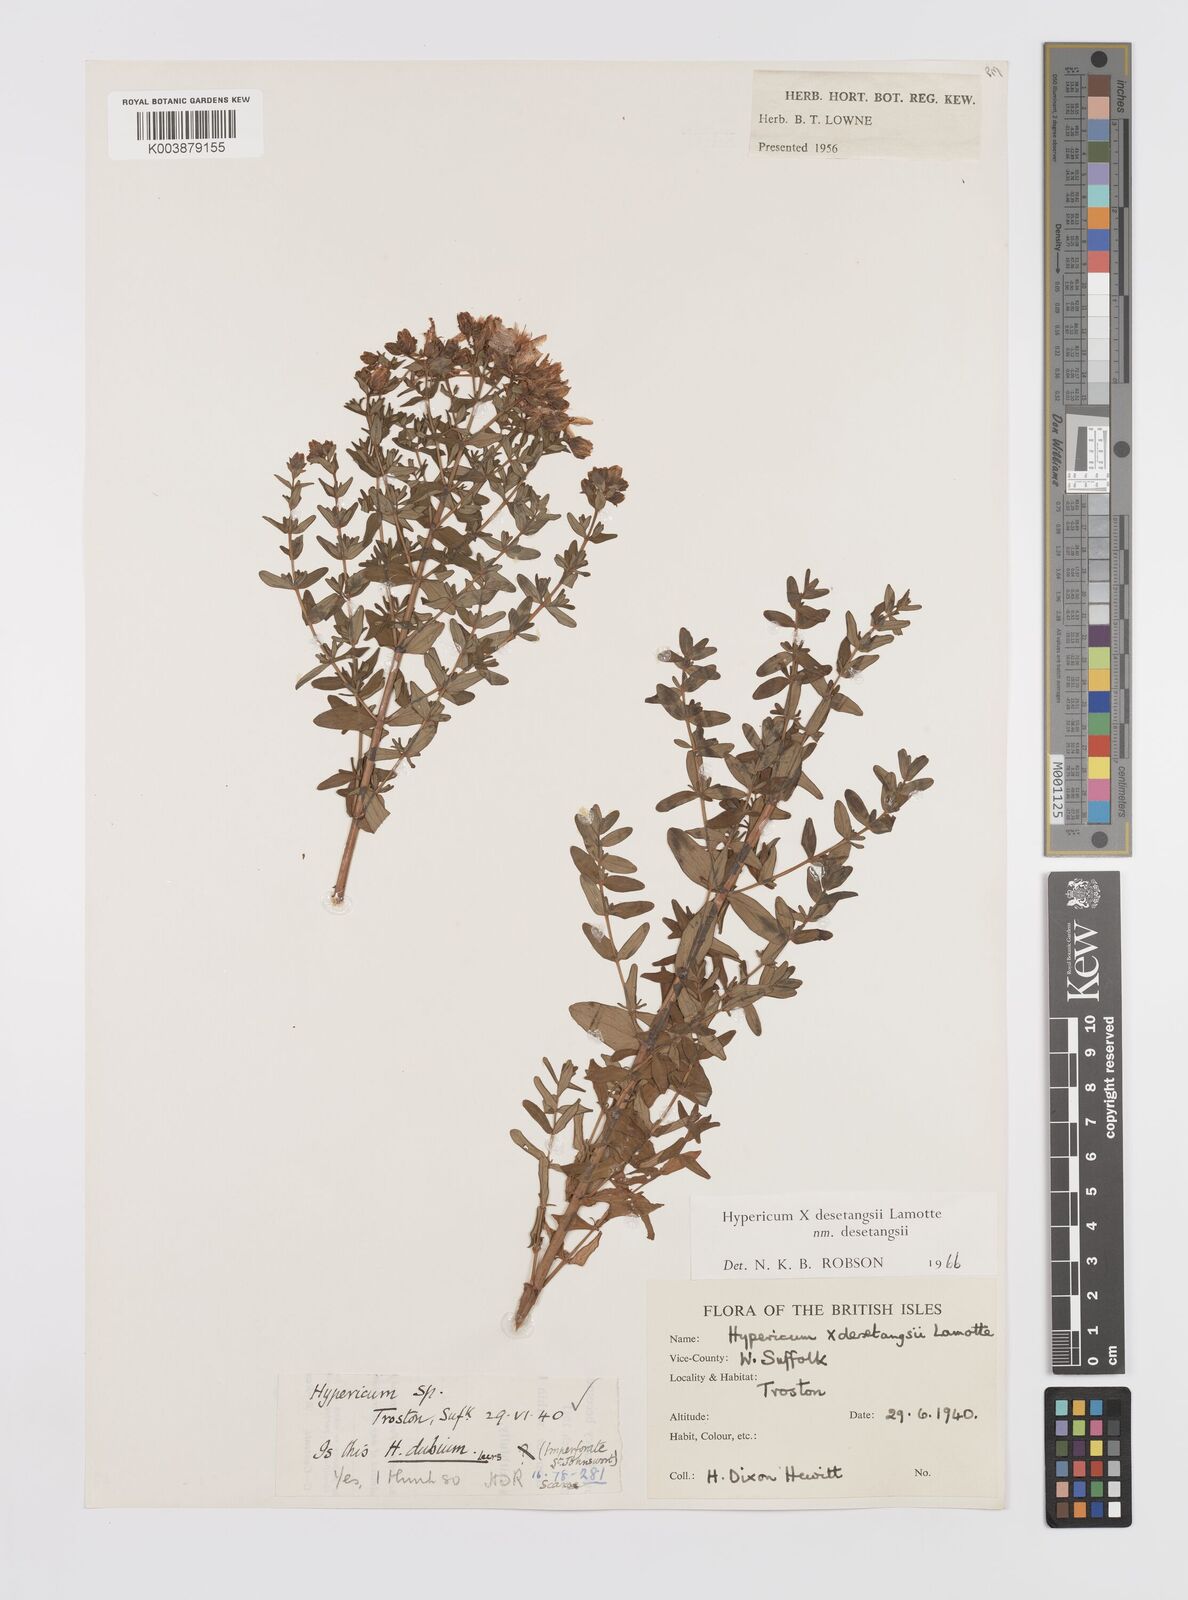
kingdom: Plantae
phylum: Tracheophyta
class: Magnoliopsida
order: Malpighiales
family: Hypericaceae
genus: Hypericum
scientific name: Hypericum desetangsii
